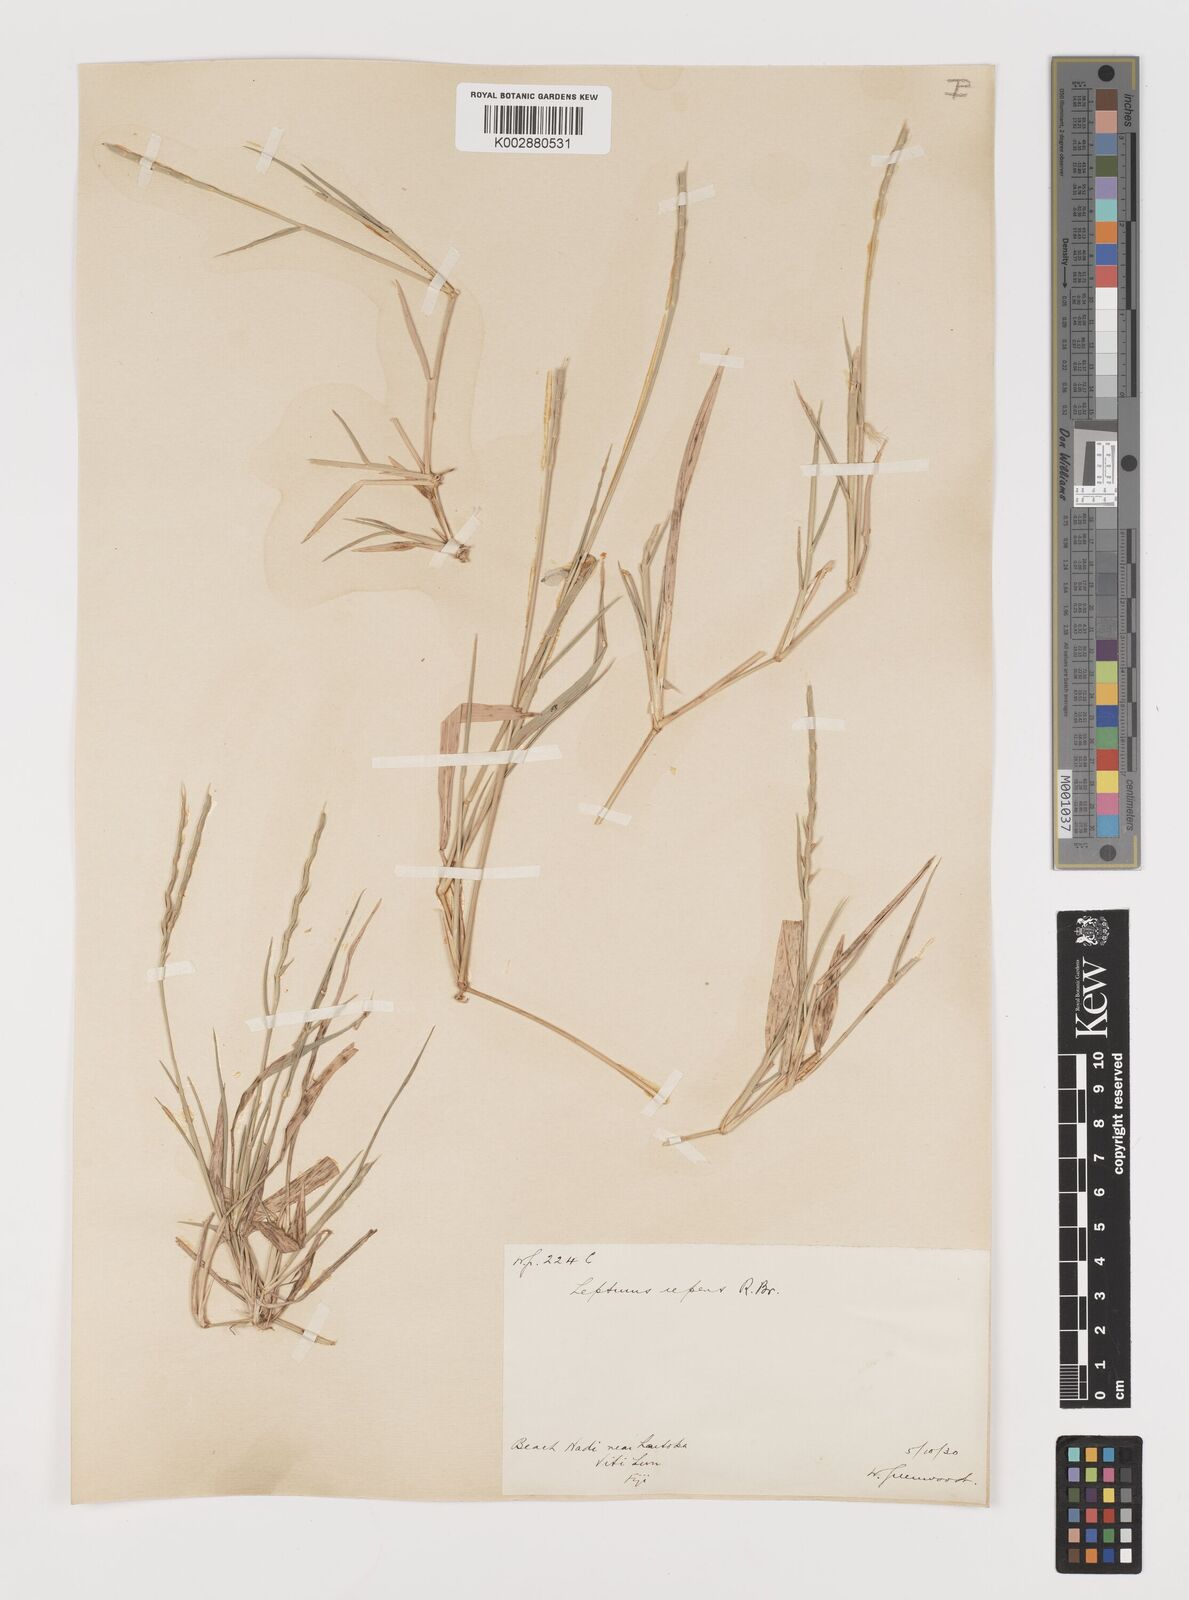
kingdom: Plantae
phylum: Tracheophyta
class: Liliopsida
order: Poales
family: Poaceae
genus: Lepturus
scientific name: Lepturus repens
